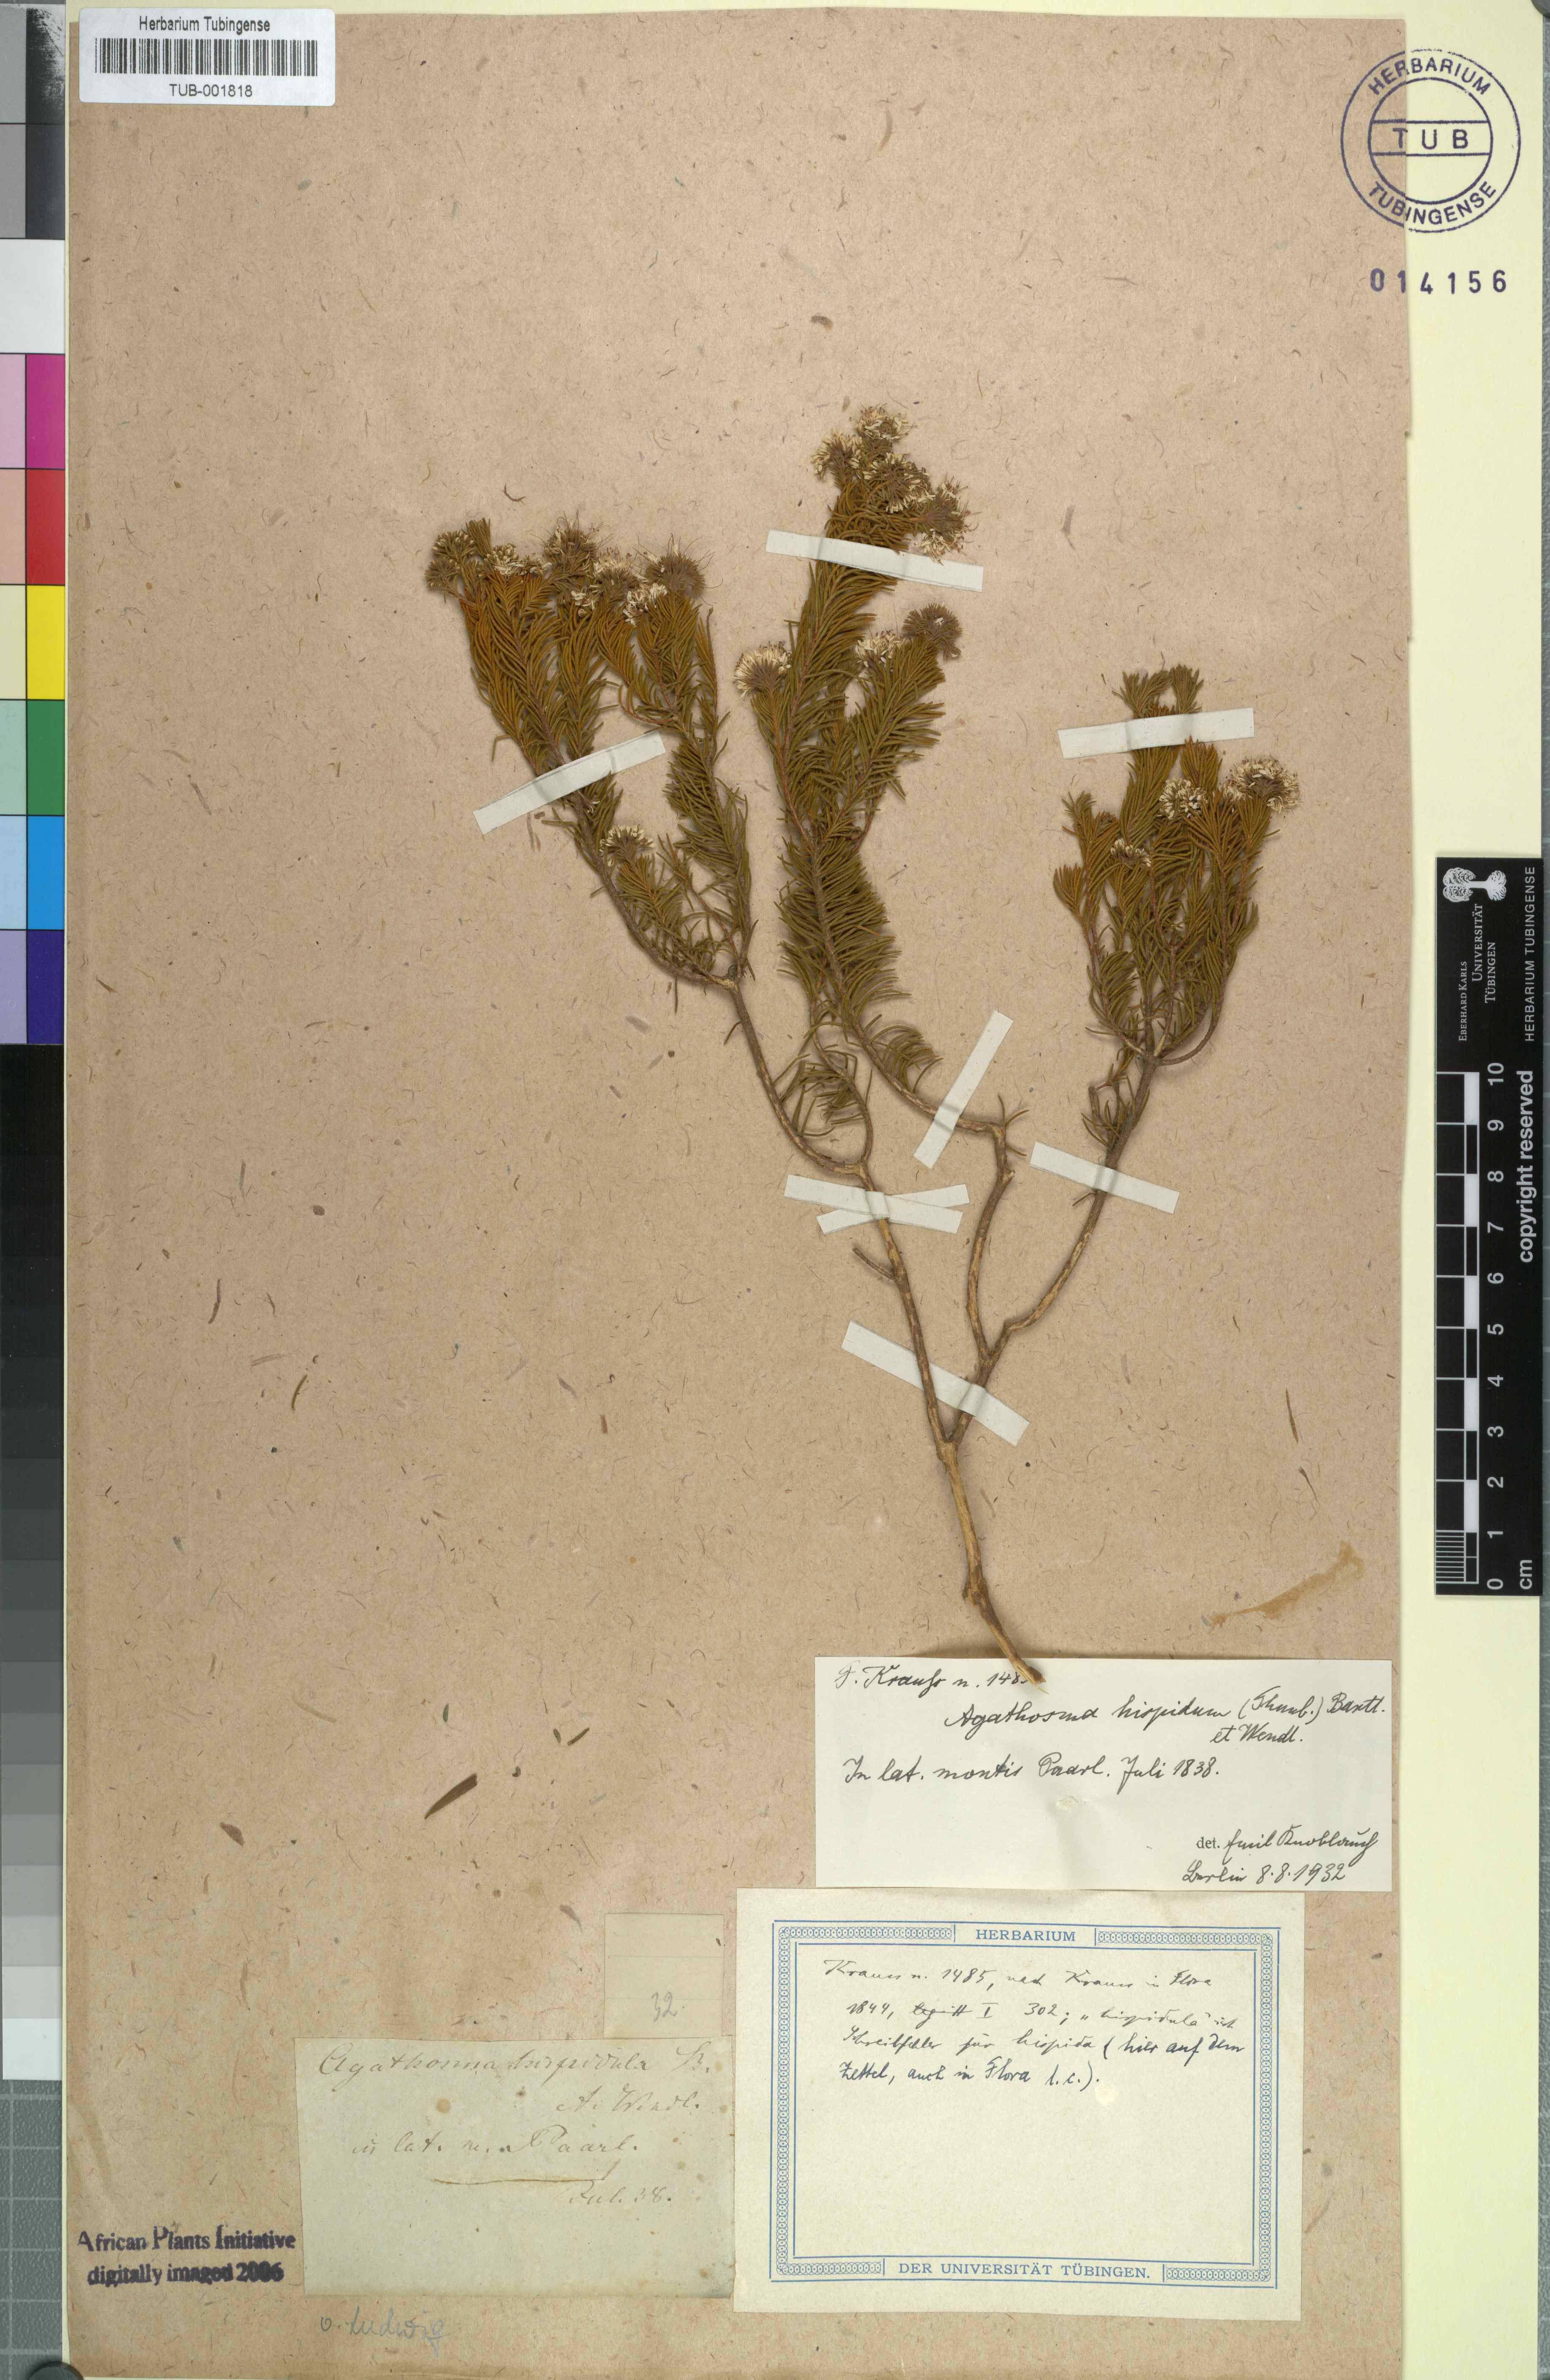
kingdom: Plantae
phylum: Tracheophyta
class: Magnoliopsida
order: Sapindales
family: Rutaceae
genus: Agathosma
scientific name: Agathosma hispida
